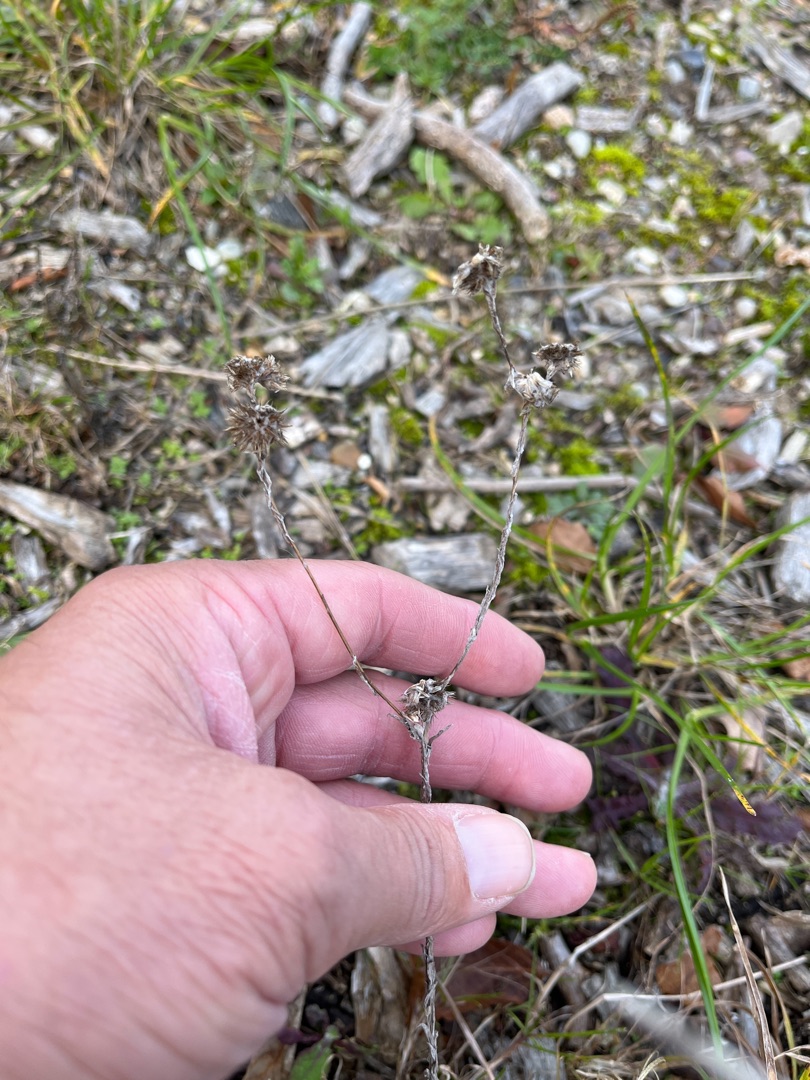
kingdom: Plantae
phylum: Tracheophyta
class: Magnoliopsida
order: Asterales
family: Asteraceae
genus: Filago
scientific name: Filago germanica
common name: Kugle-museurt
